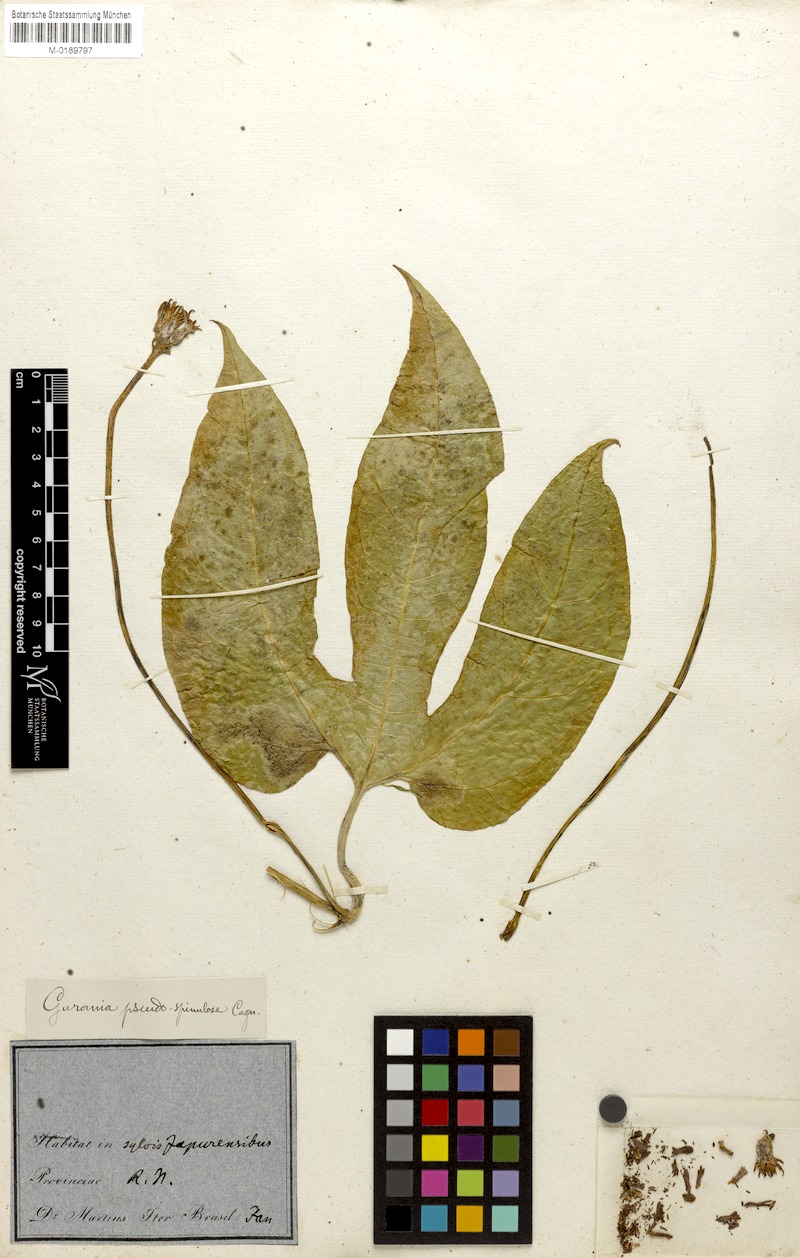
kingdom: Plantae
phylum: Tracheophyta
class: Magnoliopsida
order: Cucurbitales
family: Cucurbitaceae
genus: Gurania
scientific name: Gurania pseudospinulosa
